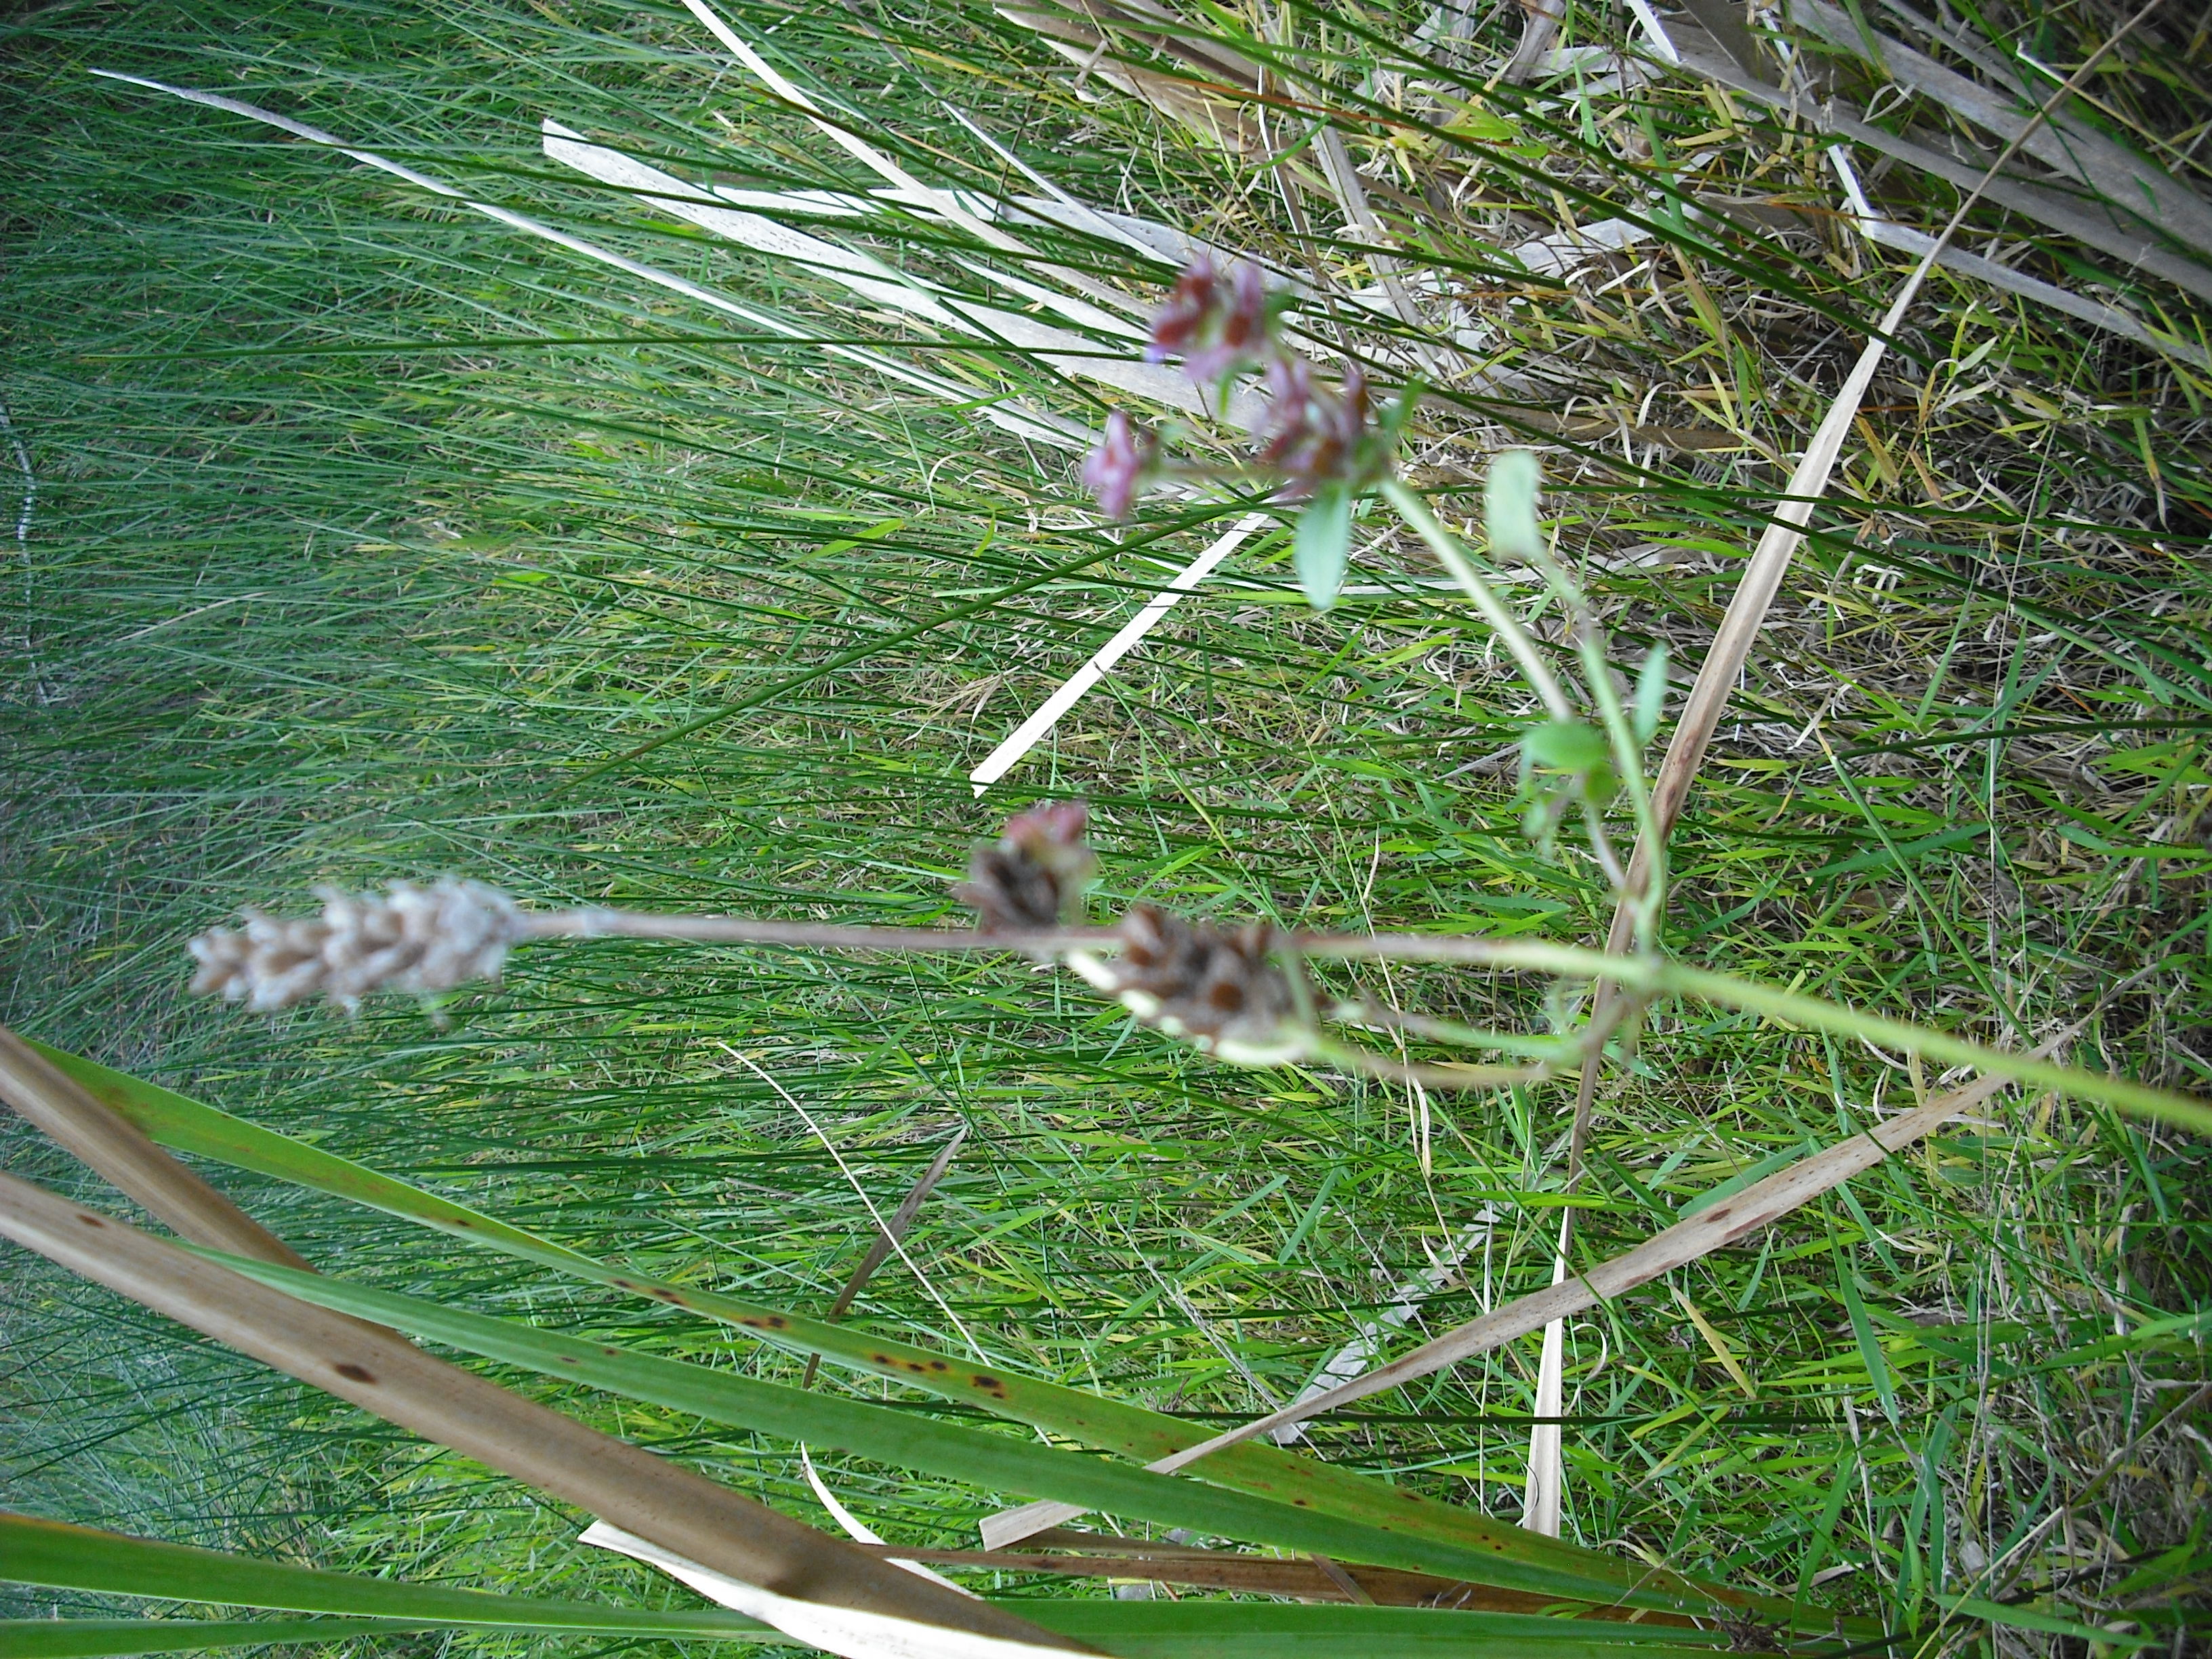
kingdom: Plantae
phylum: Tracheophyta
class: Magnoliopsida
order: Lamiales
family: Lamiaceae
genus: Prunella
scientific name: Prunella vulgaris
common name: Heal-all
